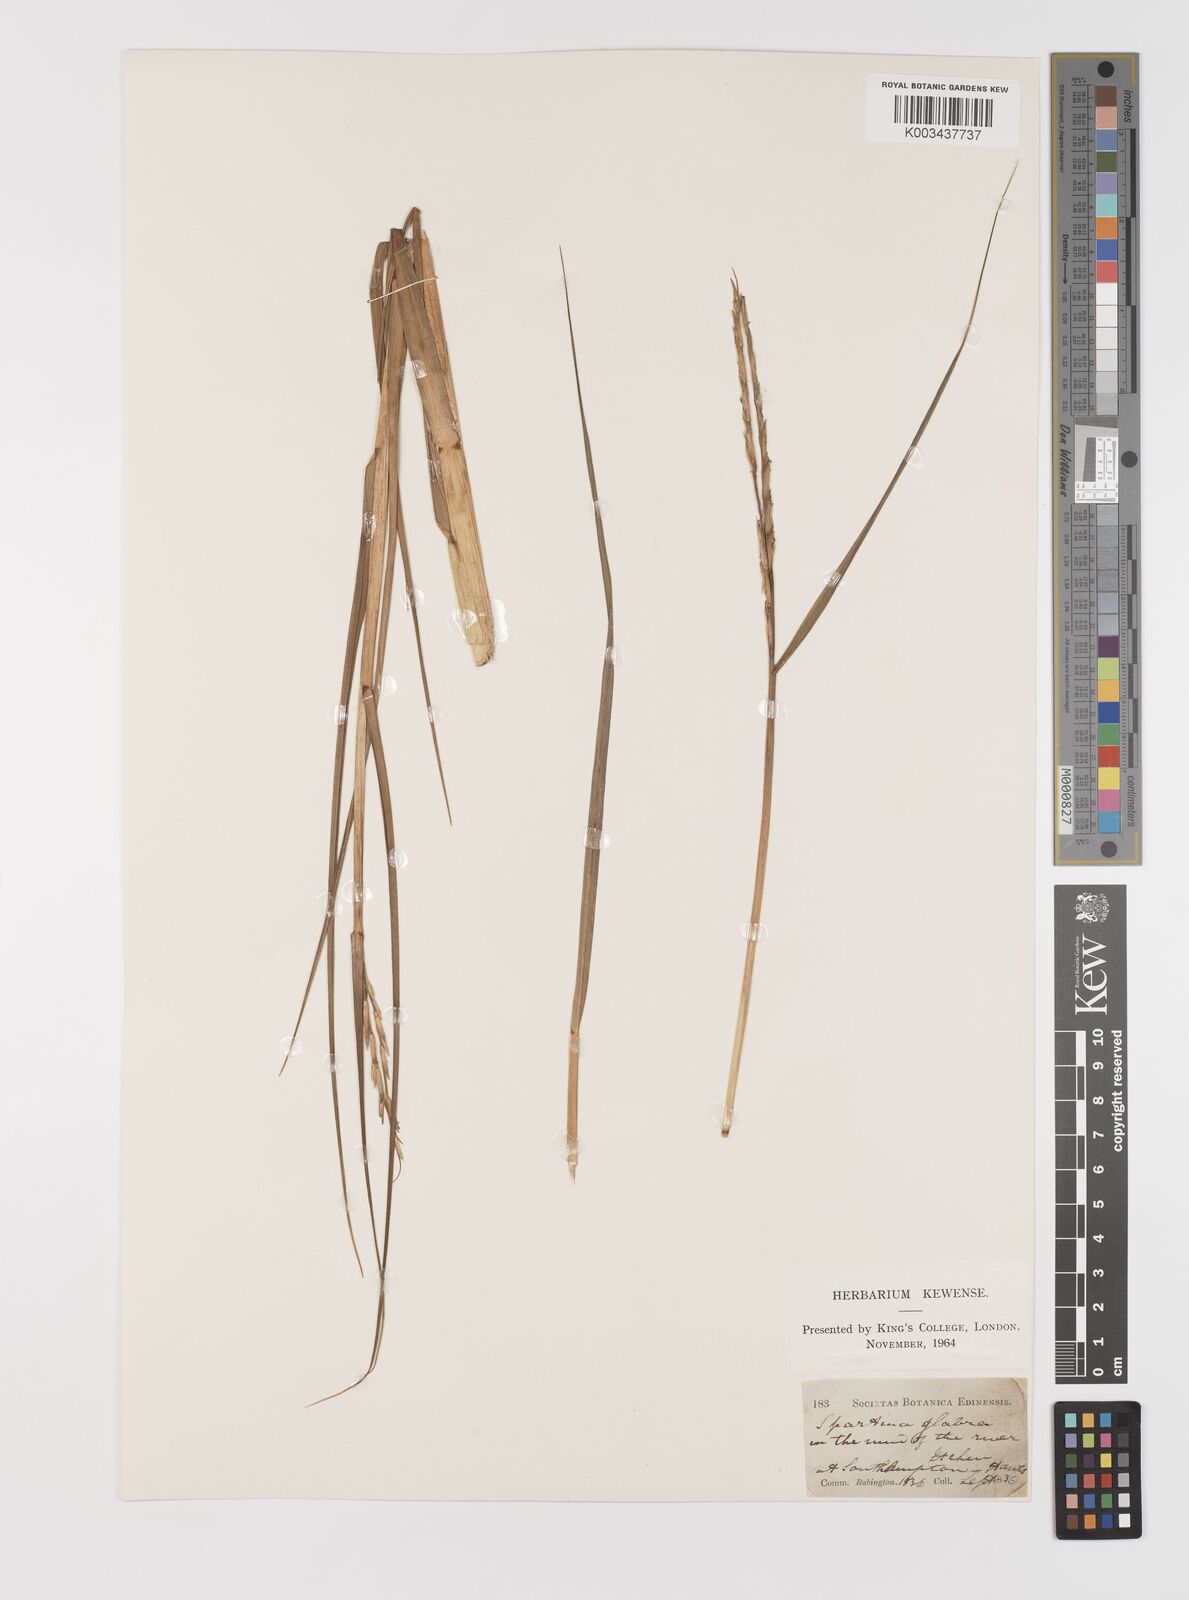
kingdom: Plantae
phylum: Tracheophyta
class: Liliopsida
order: Poales
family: Poaceae
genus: Sporobolus
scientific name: Sporobolus alterniflorus
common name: Atlantic cordgrass
